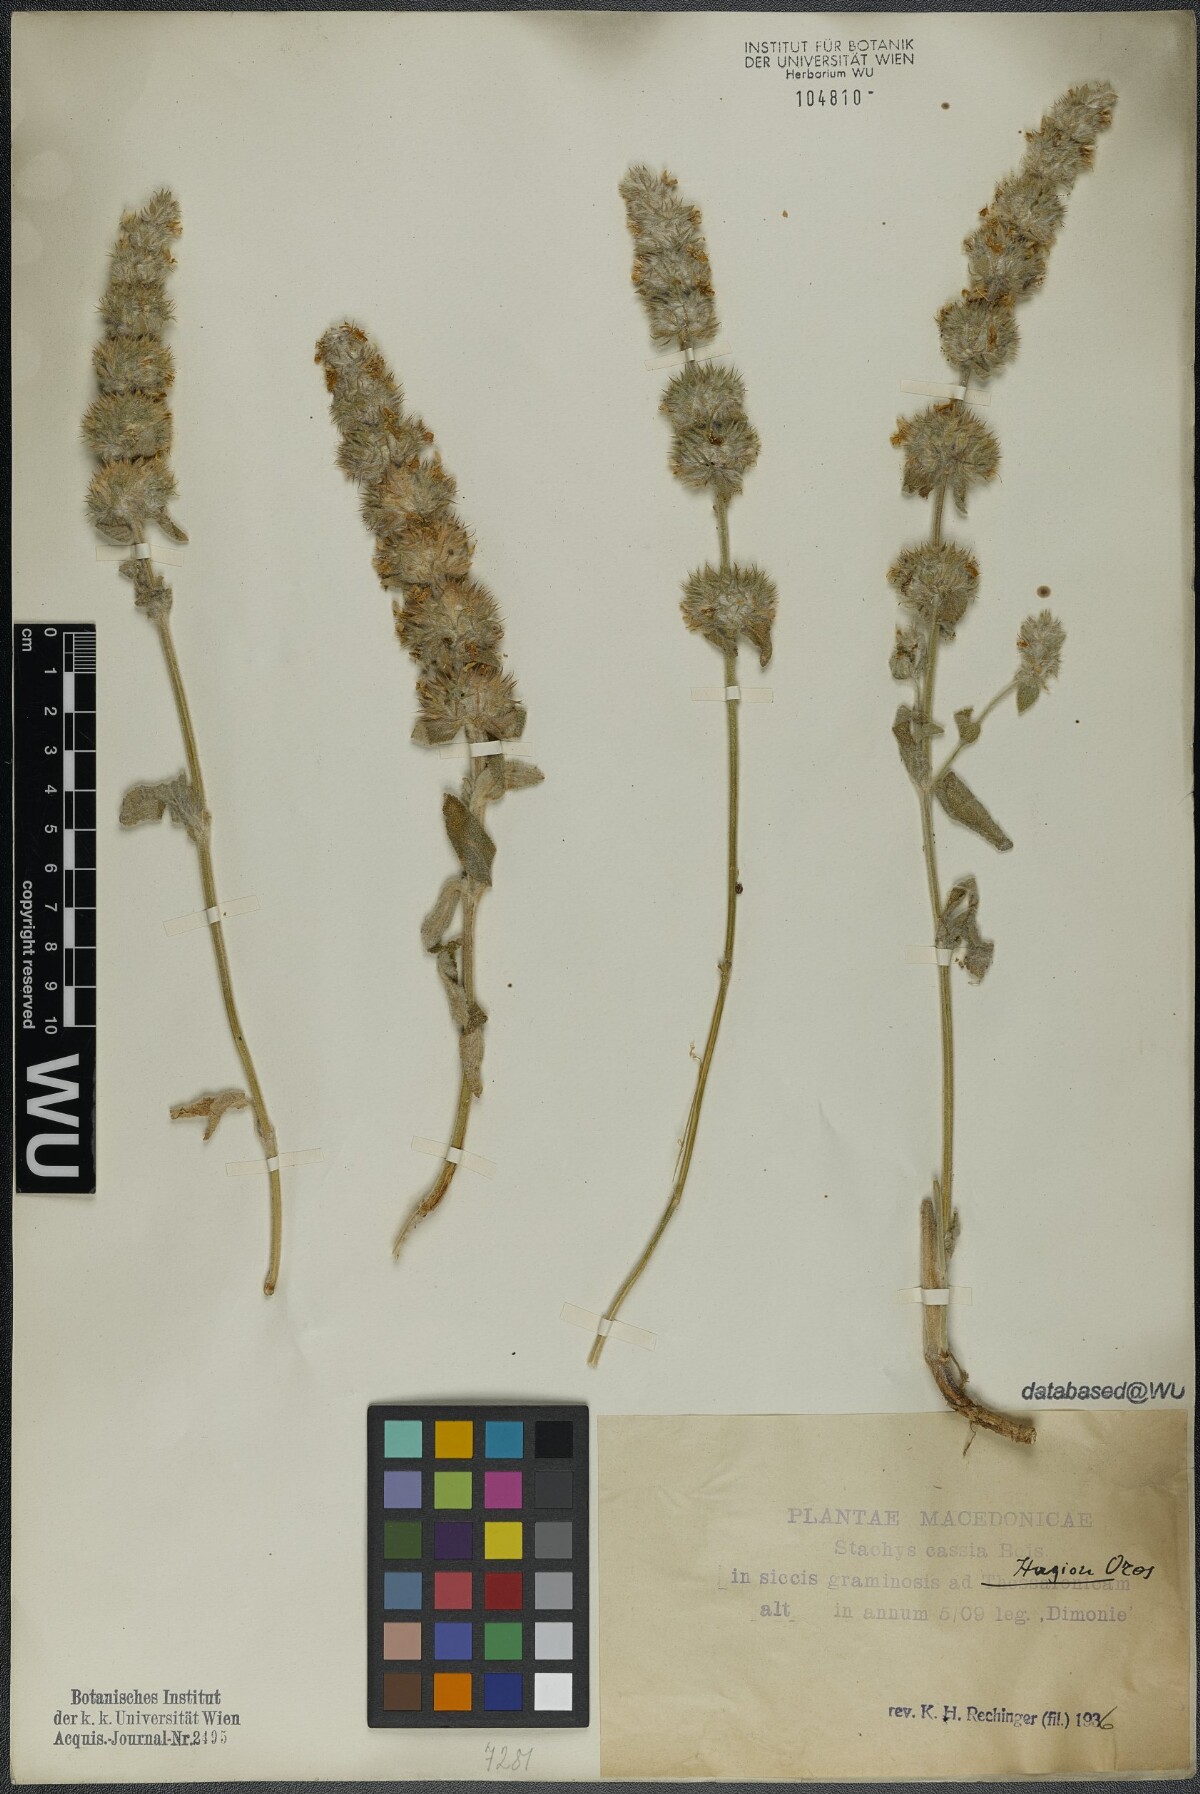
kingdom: Plantae
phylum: Tracheophyta
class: Magnoliopsida
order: Lamiales
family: Lamiaceae
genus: Stachys
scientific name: Stachys cretica
